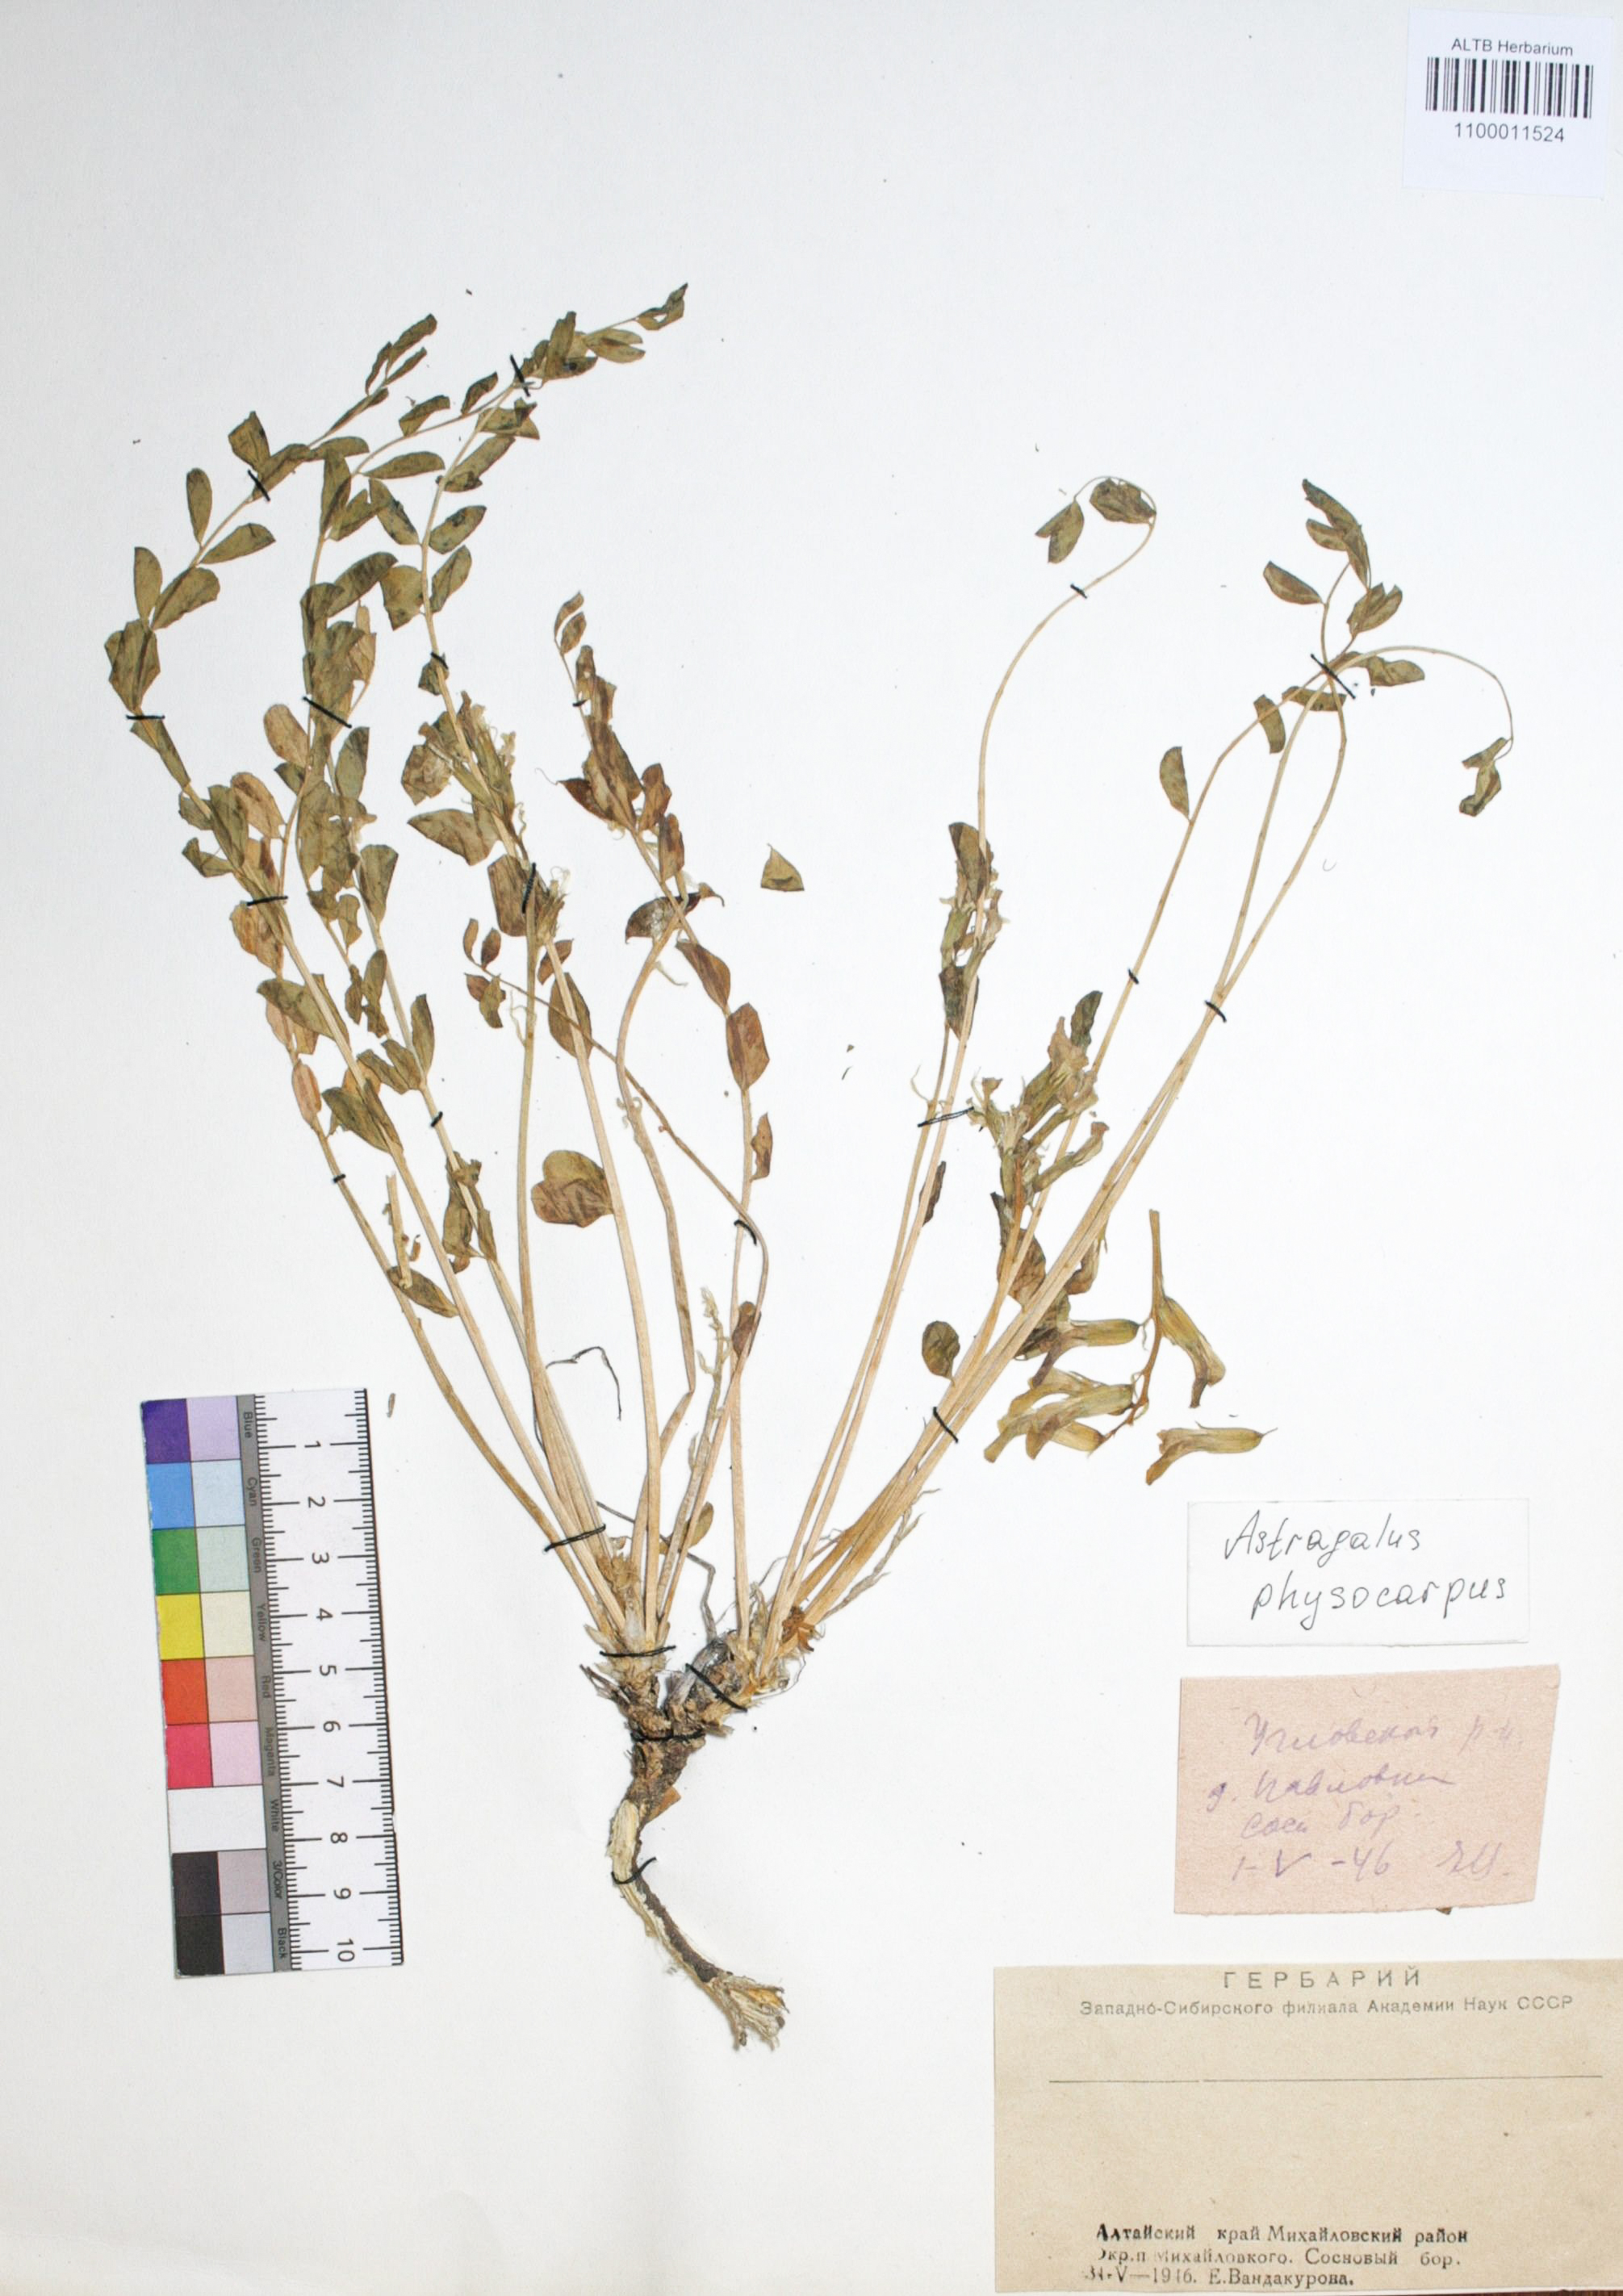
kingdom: Plantae
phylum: Tracheophyta
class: Magnoliopsida
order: Fabales
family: Fabaceae
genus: Astragalus
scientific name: Astragalus physocarpus
